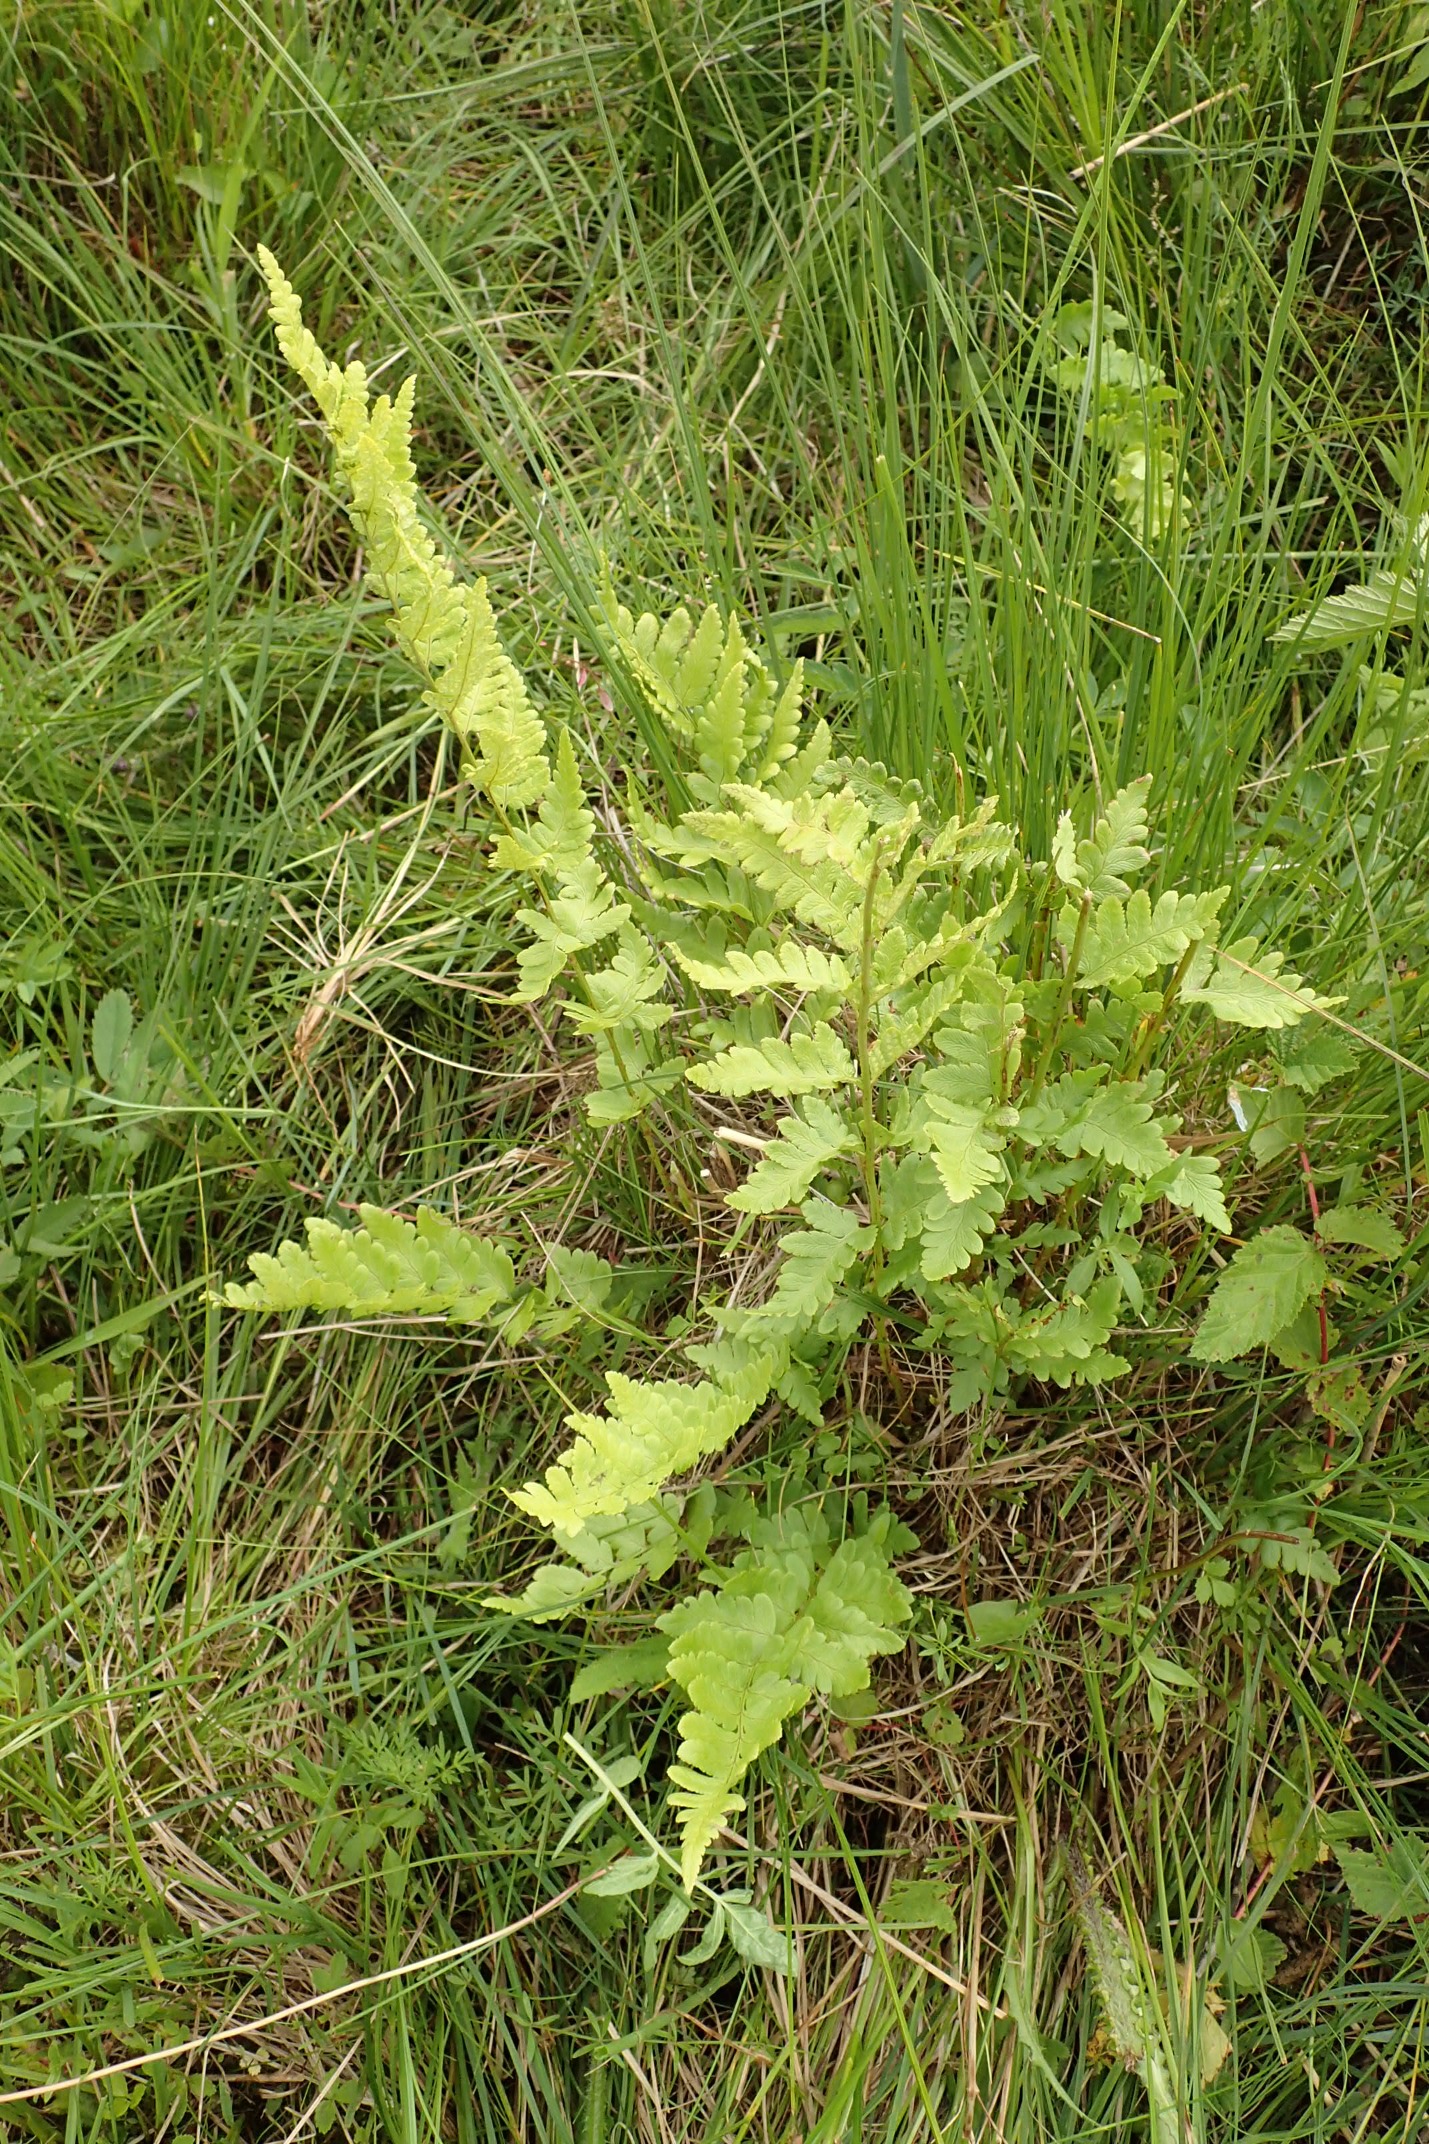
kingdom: Plantae
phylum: Tracheophyta
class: Polypodiopsida
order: Polypodiales
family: Dryopteridaceae
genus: Dryopteris
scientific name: Dryopteris cristata
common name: Butfinnet mangeløv
